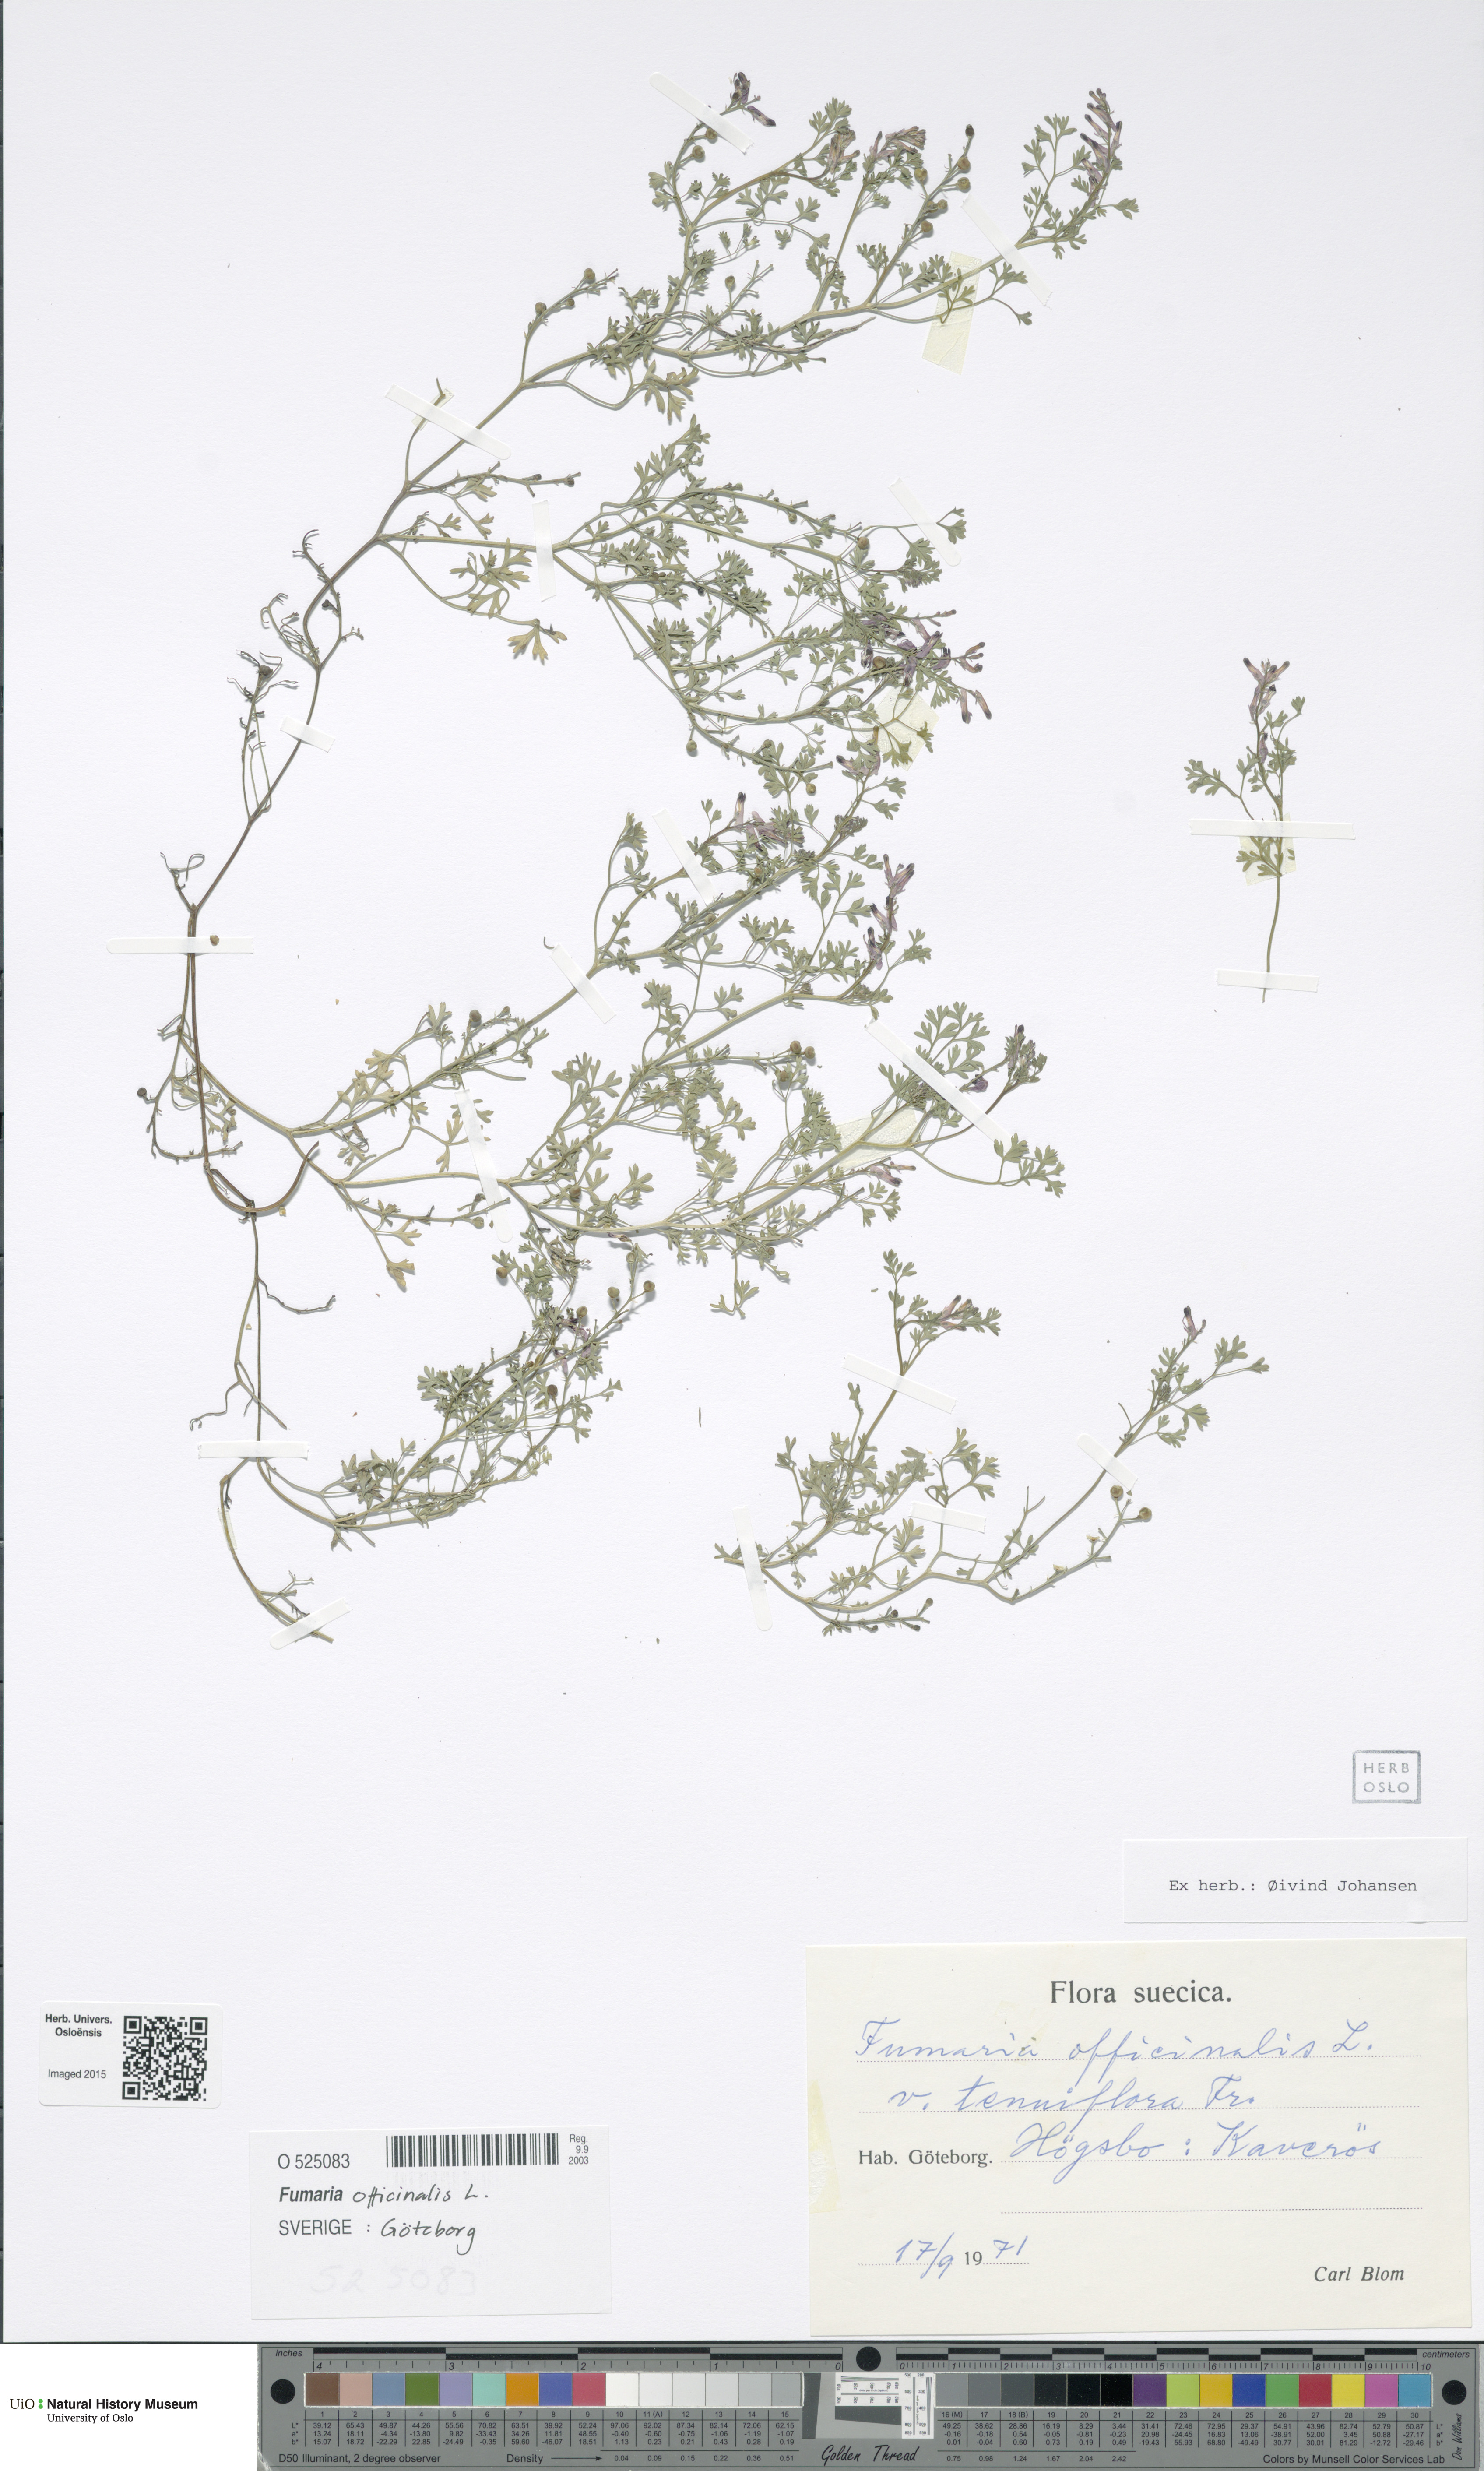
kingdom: Plantae
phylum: Tracheophyta
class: Magnoliopsida
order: Ranunculales
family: Papaveraceae
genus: Fumaria
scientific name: Fumaria officinalis
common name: Common fumitory
